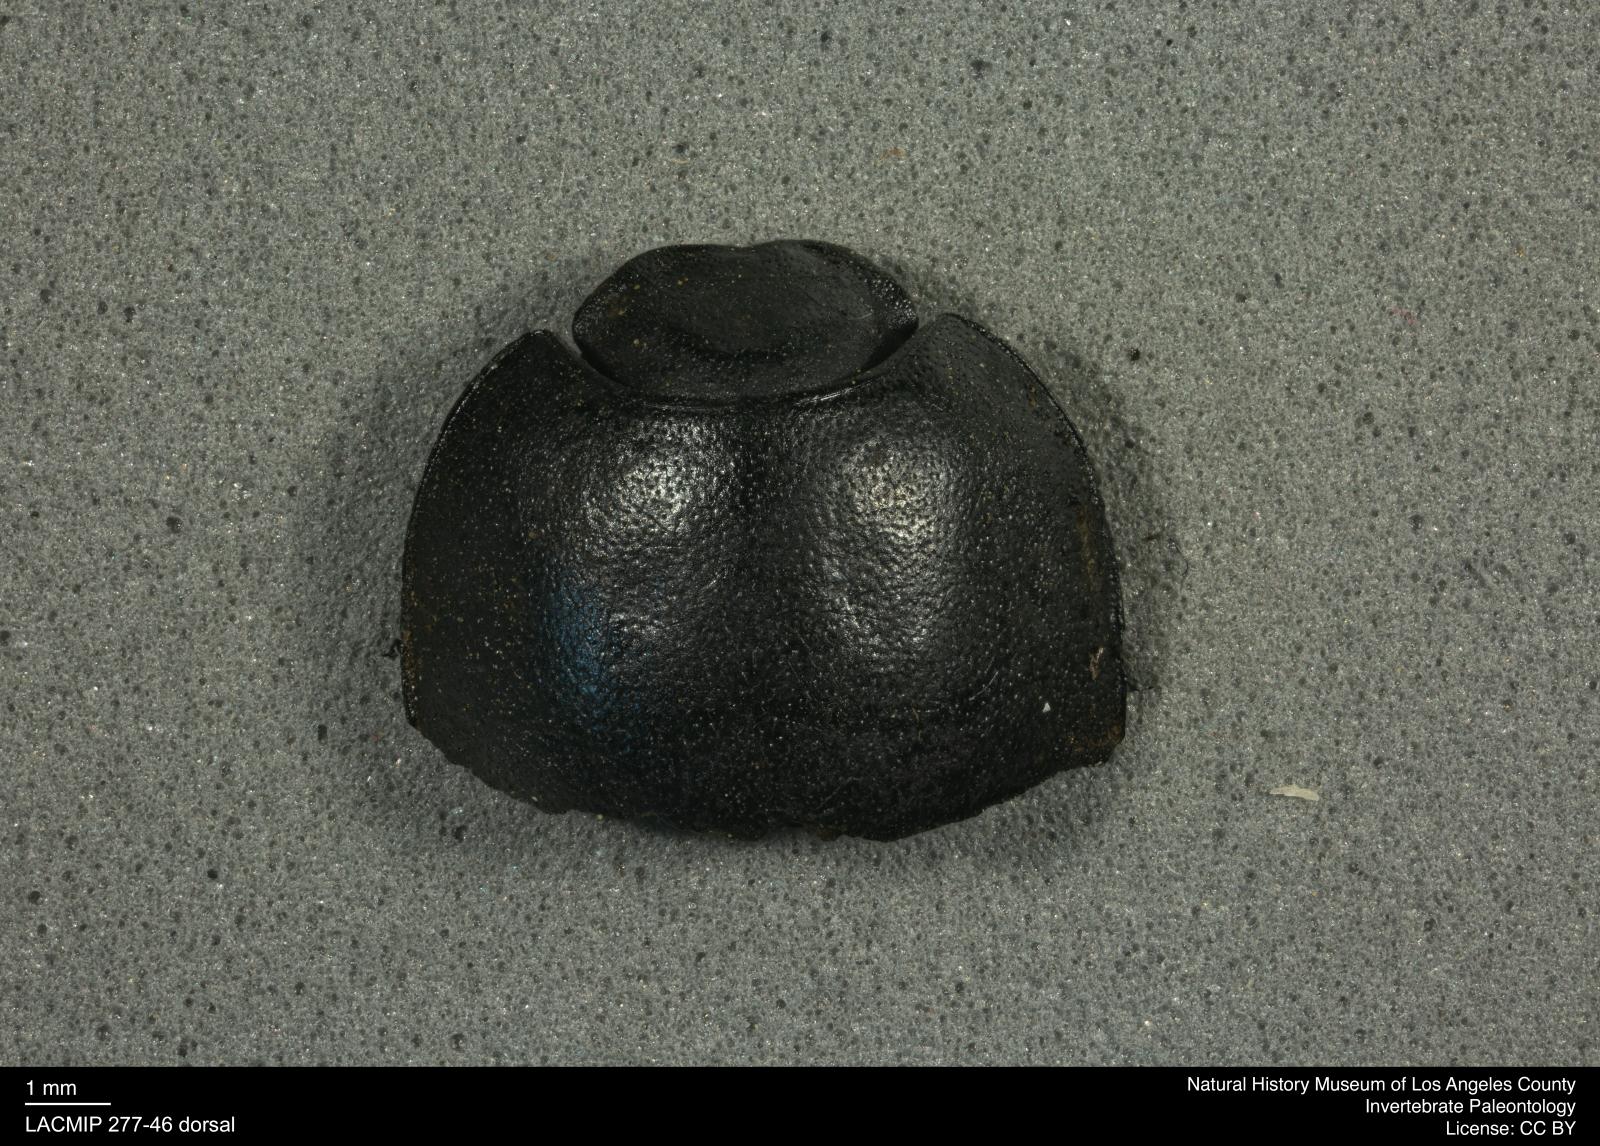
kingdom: Animalia
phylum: Arthropoda
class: Insecta
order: Coleoptera
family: Tenebrionidae
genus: Coniontis
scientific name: Coniontis abdominalis
